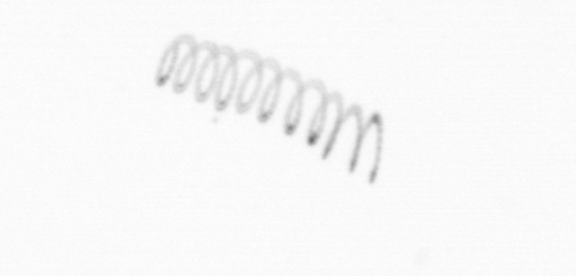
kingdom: Chromista
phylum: Ochrophyta
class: Bacillariophyceae
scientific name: Bacillariophyceae
